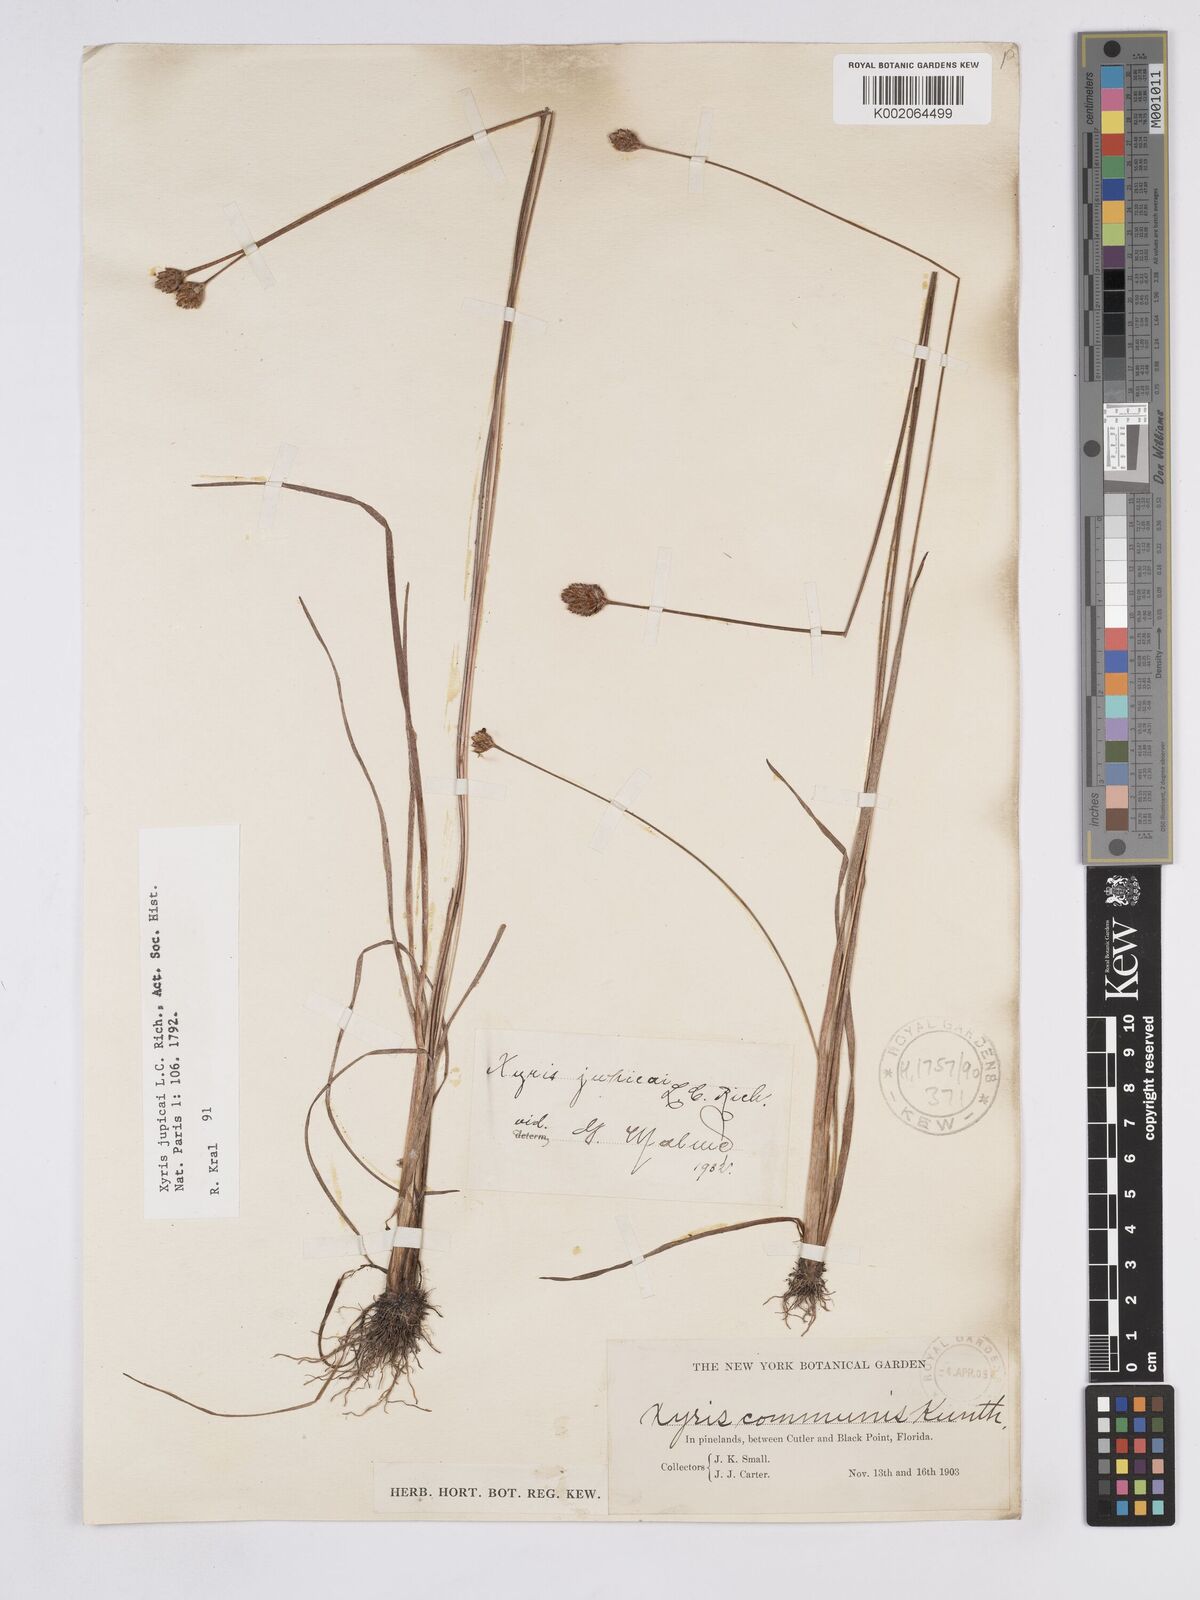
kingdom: Plantae
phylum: Tracheophyta
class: Liliopsida
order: Poales
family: Xyridaceae
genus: Xyris
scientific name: Xyris jupicai
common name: Richard's yelloweyed grass
